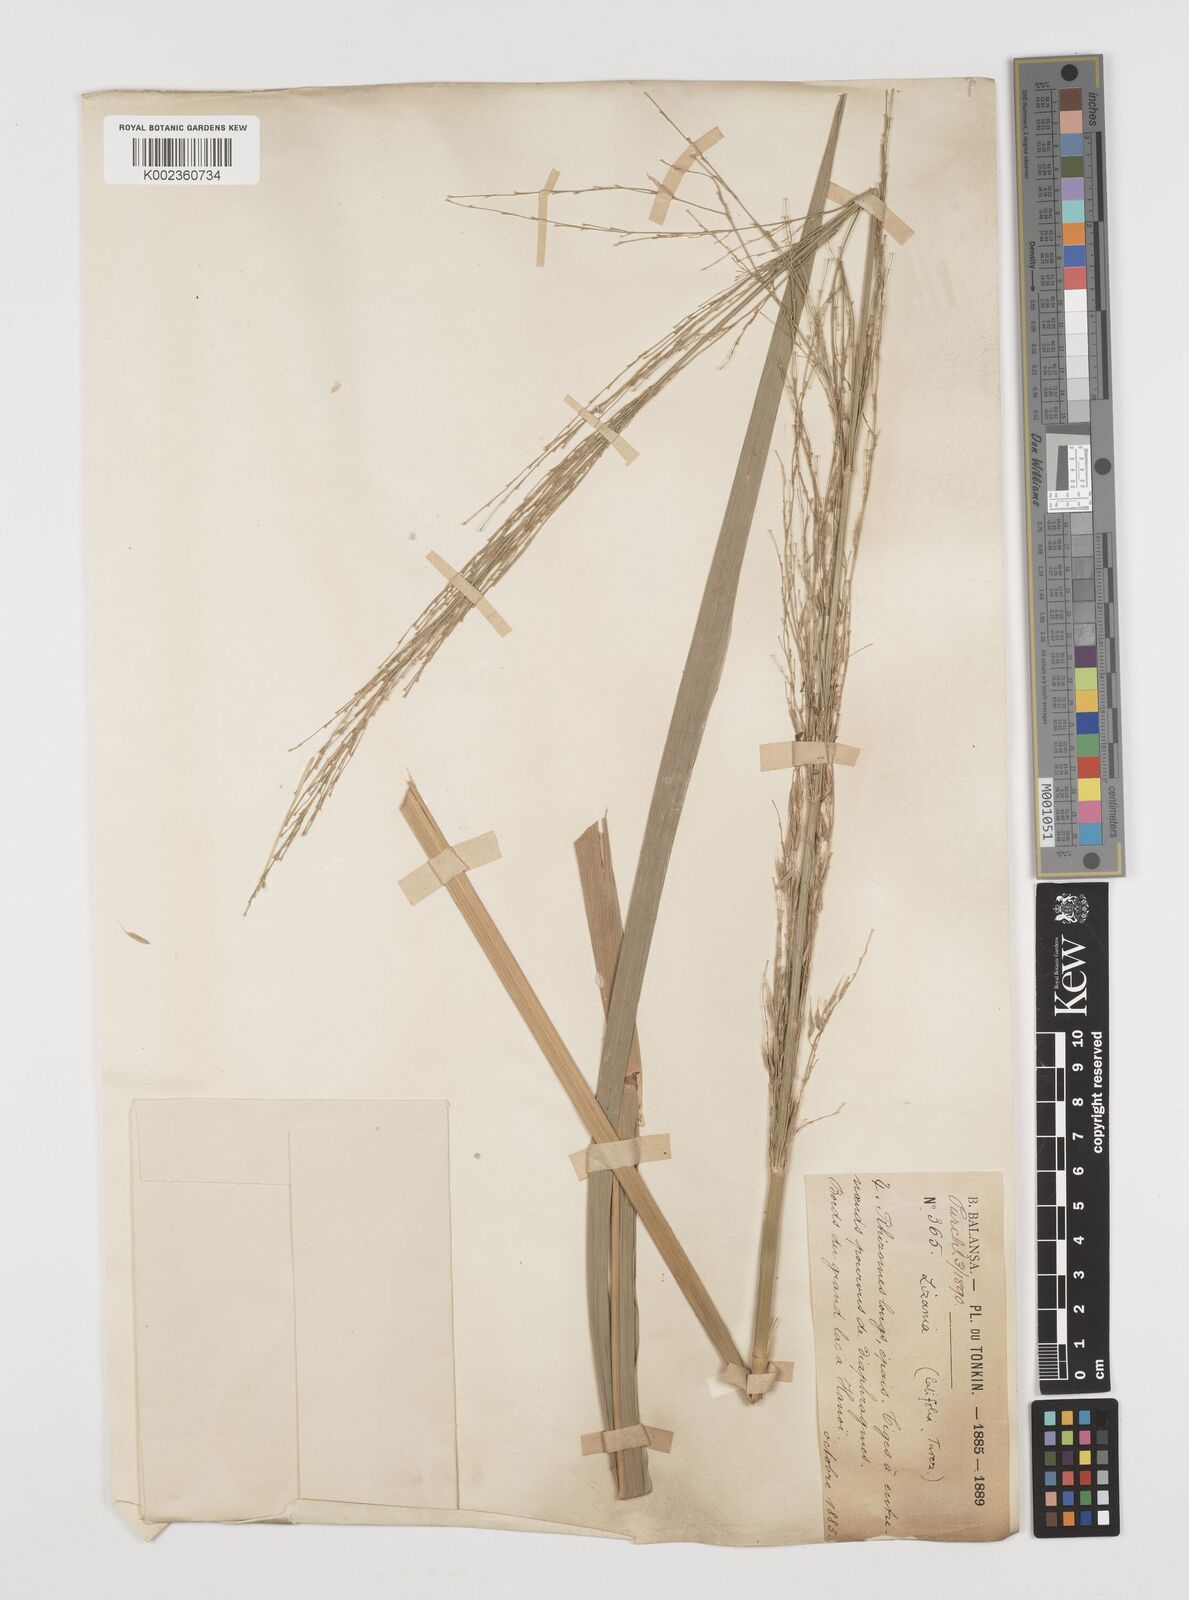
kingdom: Plantae
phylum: Tracheophyta
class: Liliopsida
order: Poales
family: Poaceae
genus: Zizania
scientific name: Zizania latifolia
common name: Manchurian wildrice
